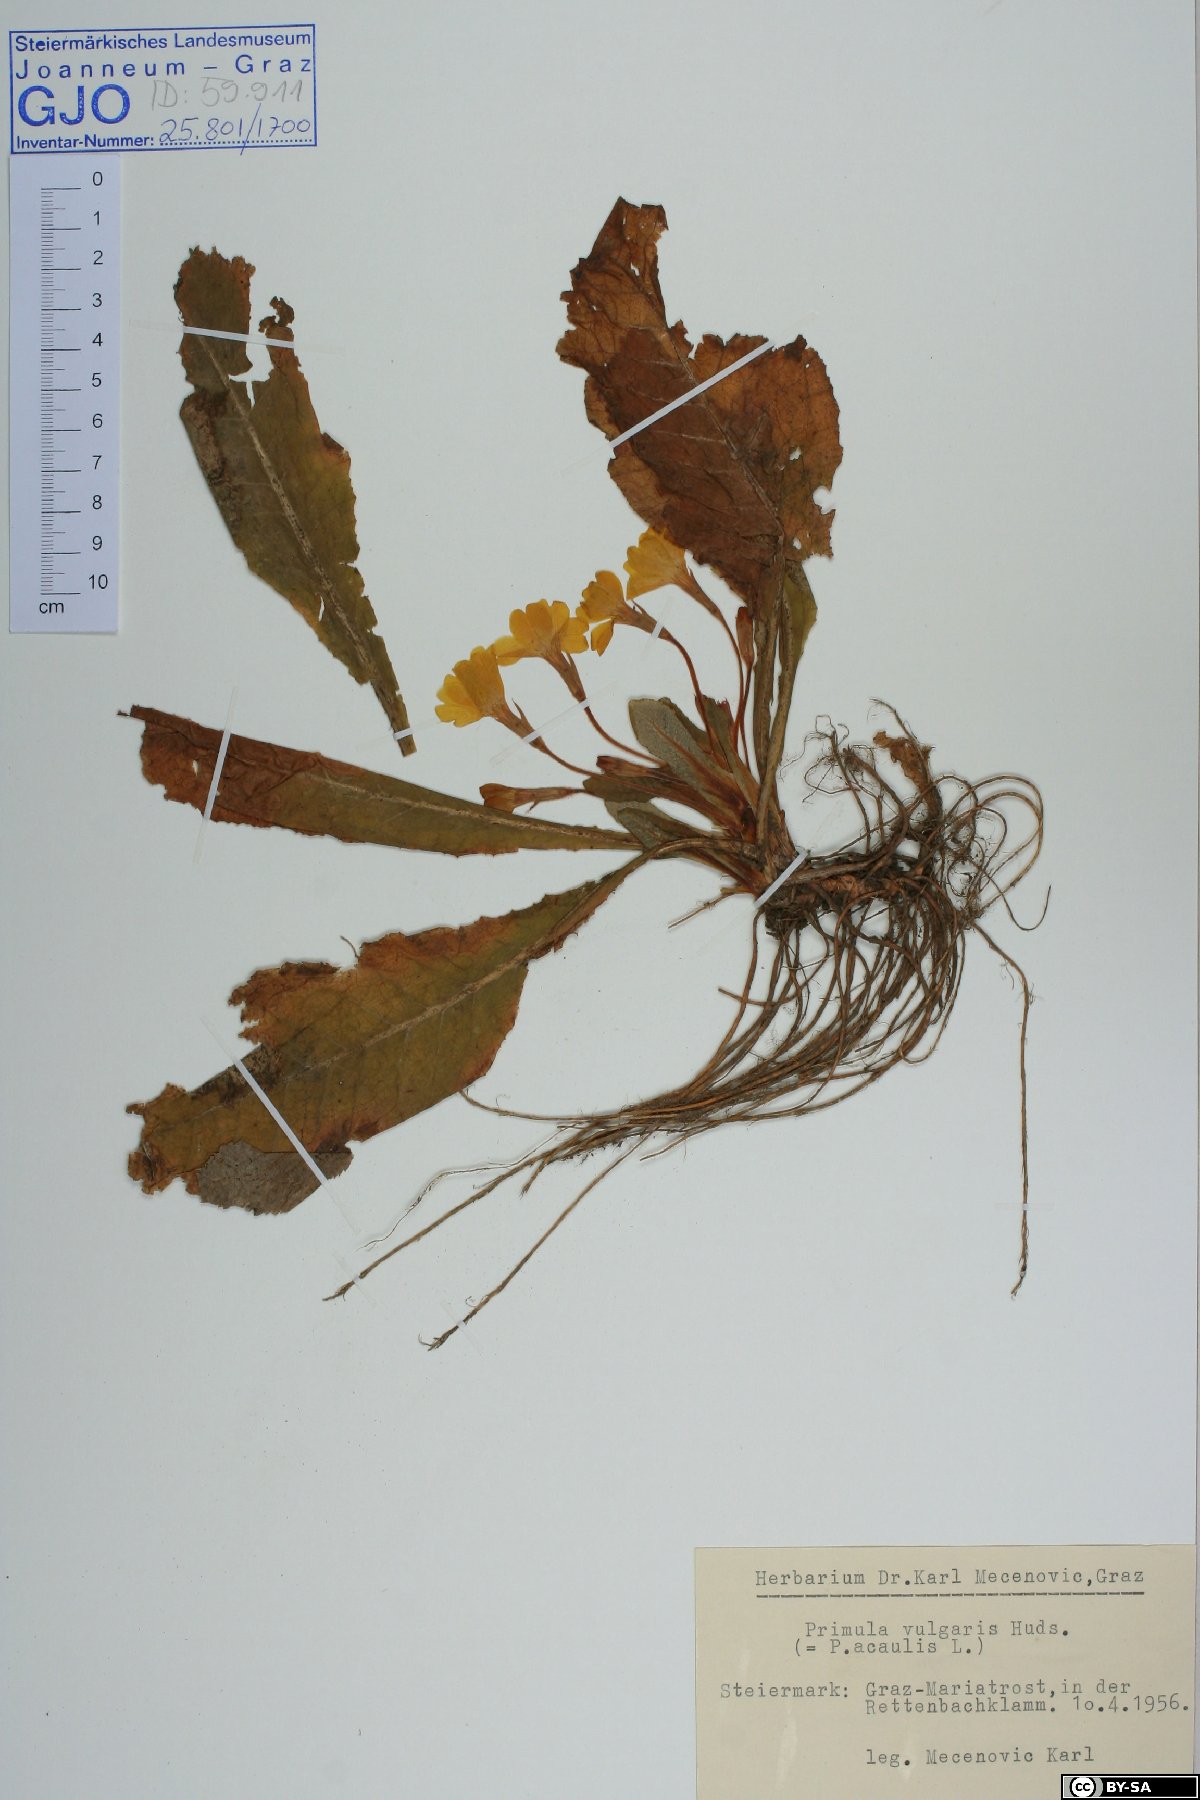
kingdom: Plantae
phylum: Tracheophyta
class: Magnoliopsida
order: Ericales
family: Primulaceae
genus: Primula
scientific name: Primula vulgaris
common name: Primrose
